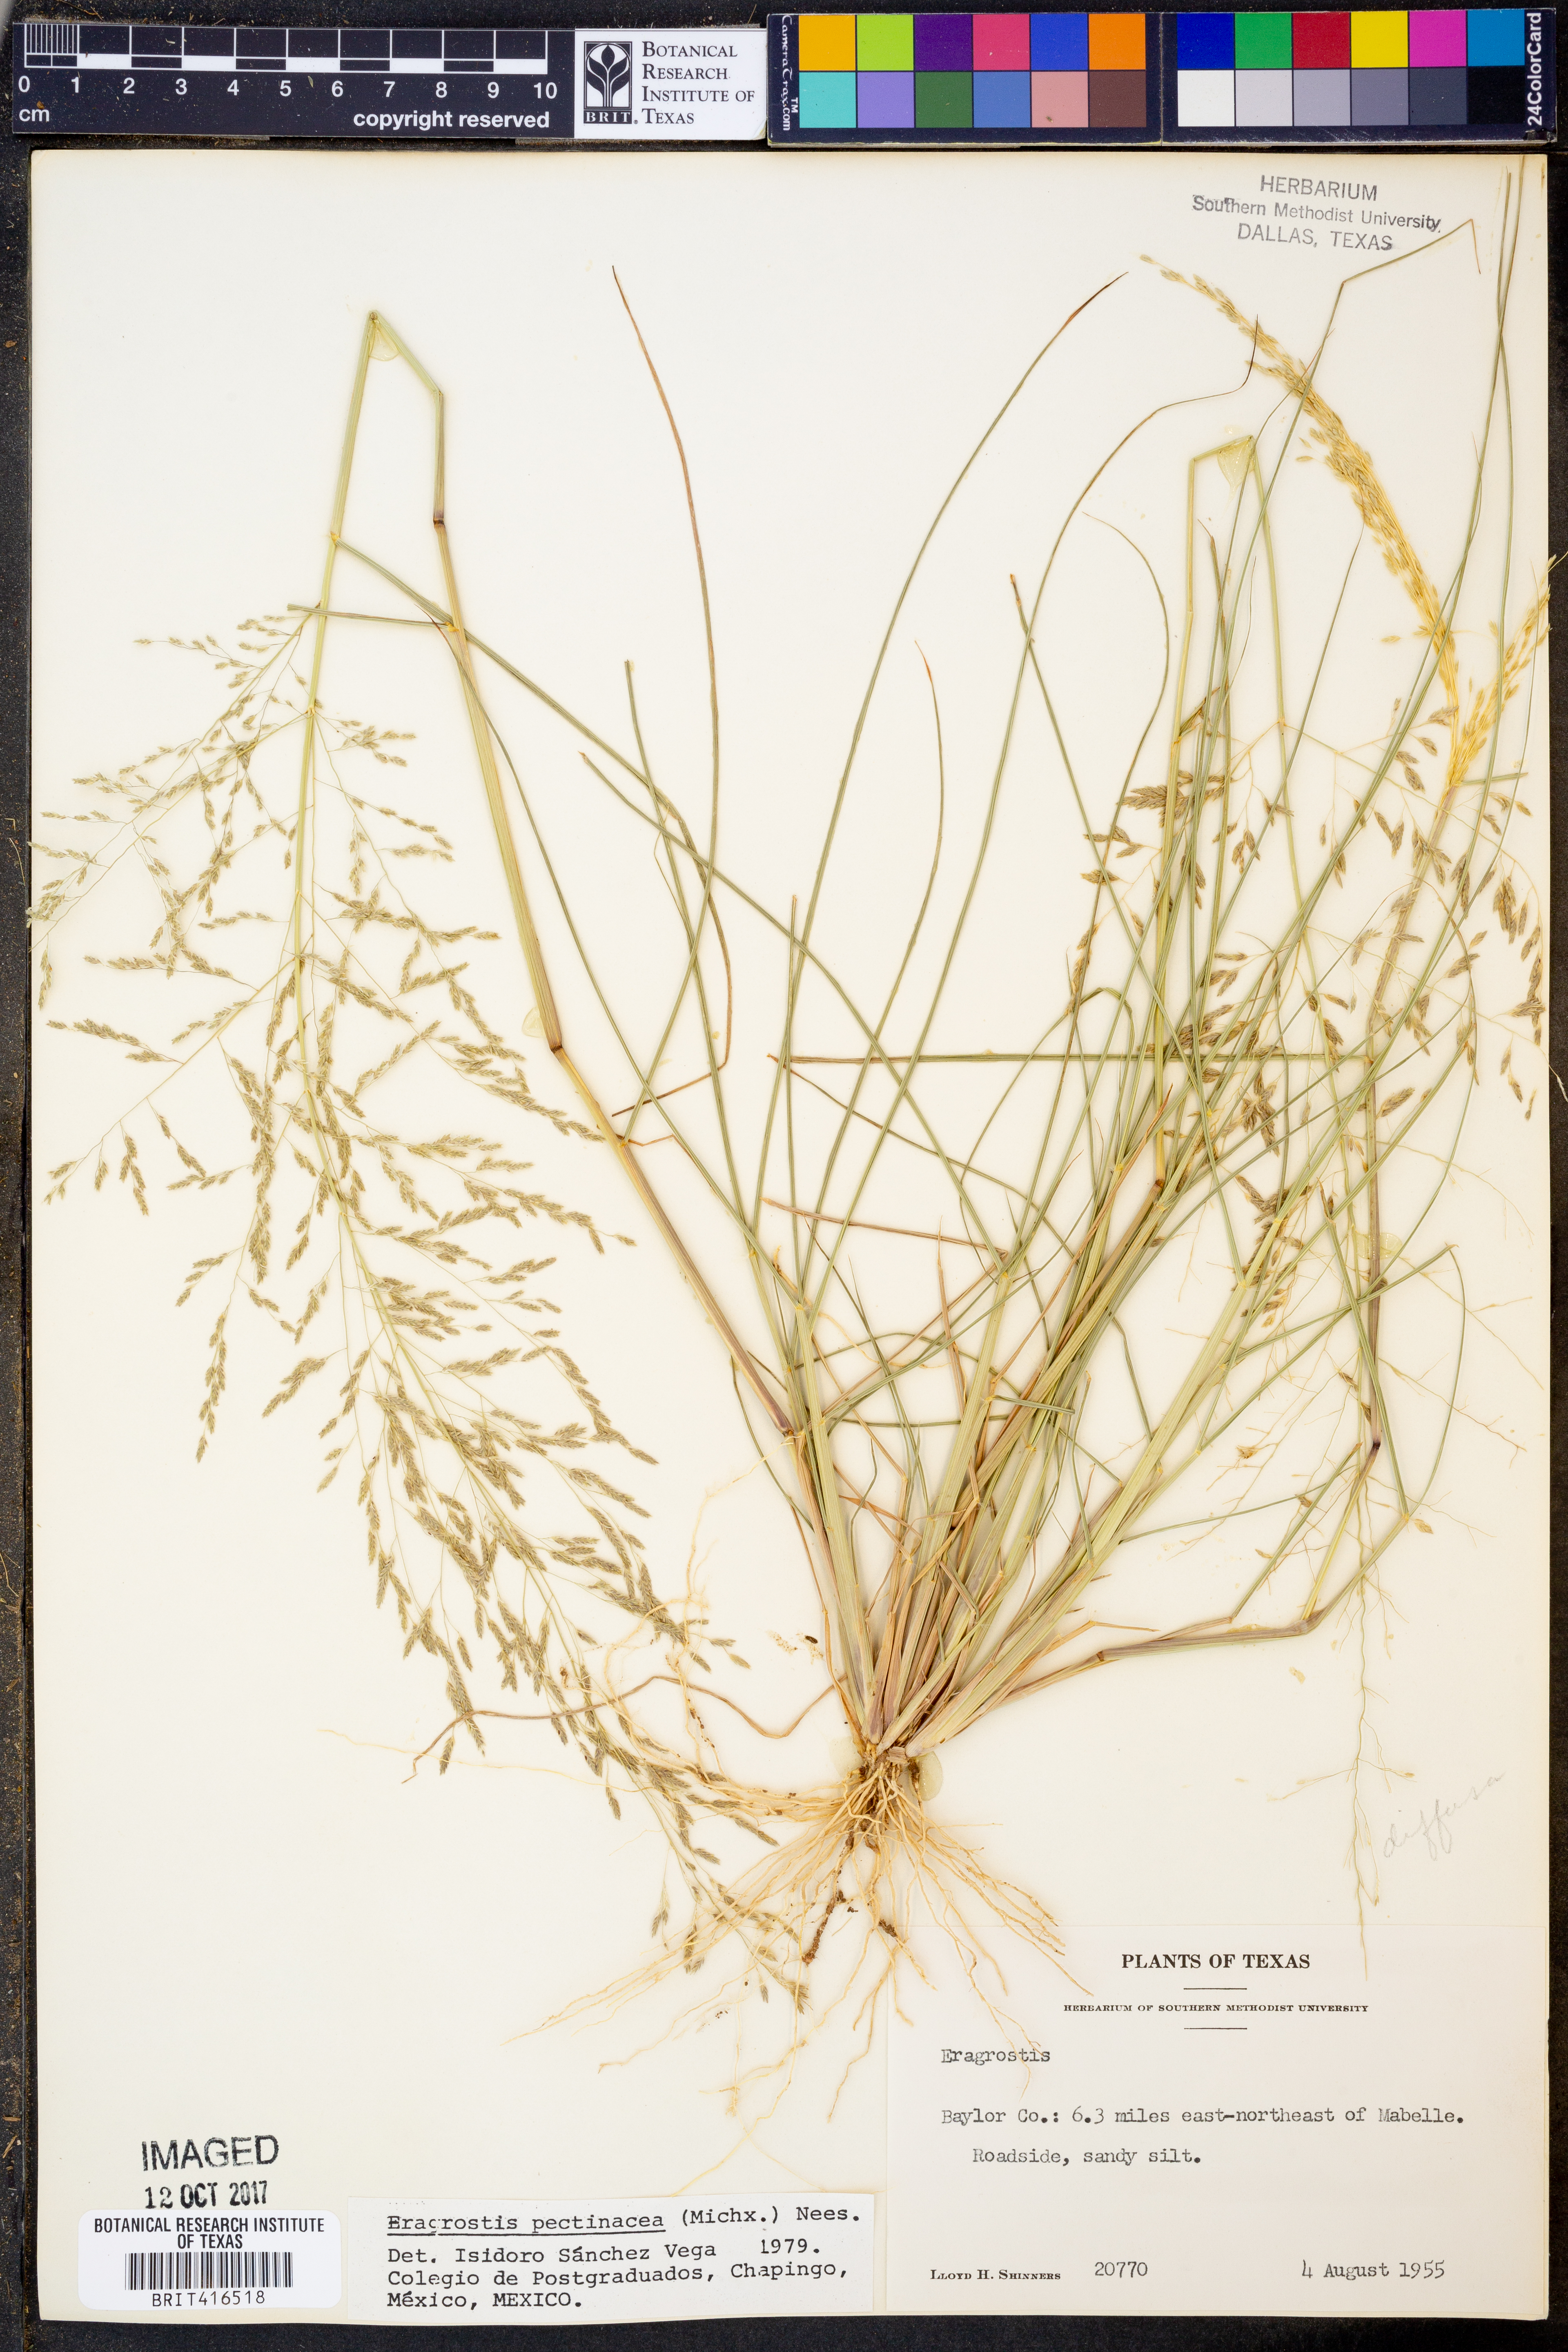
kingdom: Plantae
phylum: Tracheophyta
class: Liliopsida
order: Poales
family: Poaceae
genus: Eragrostis
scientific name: Eragrostis pectinacea
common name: Tufted lovegrass
